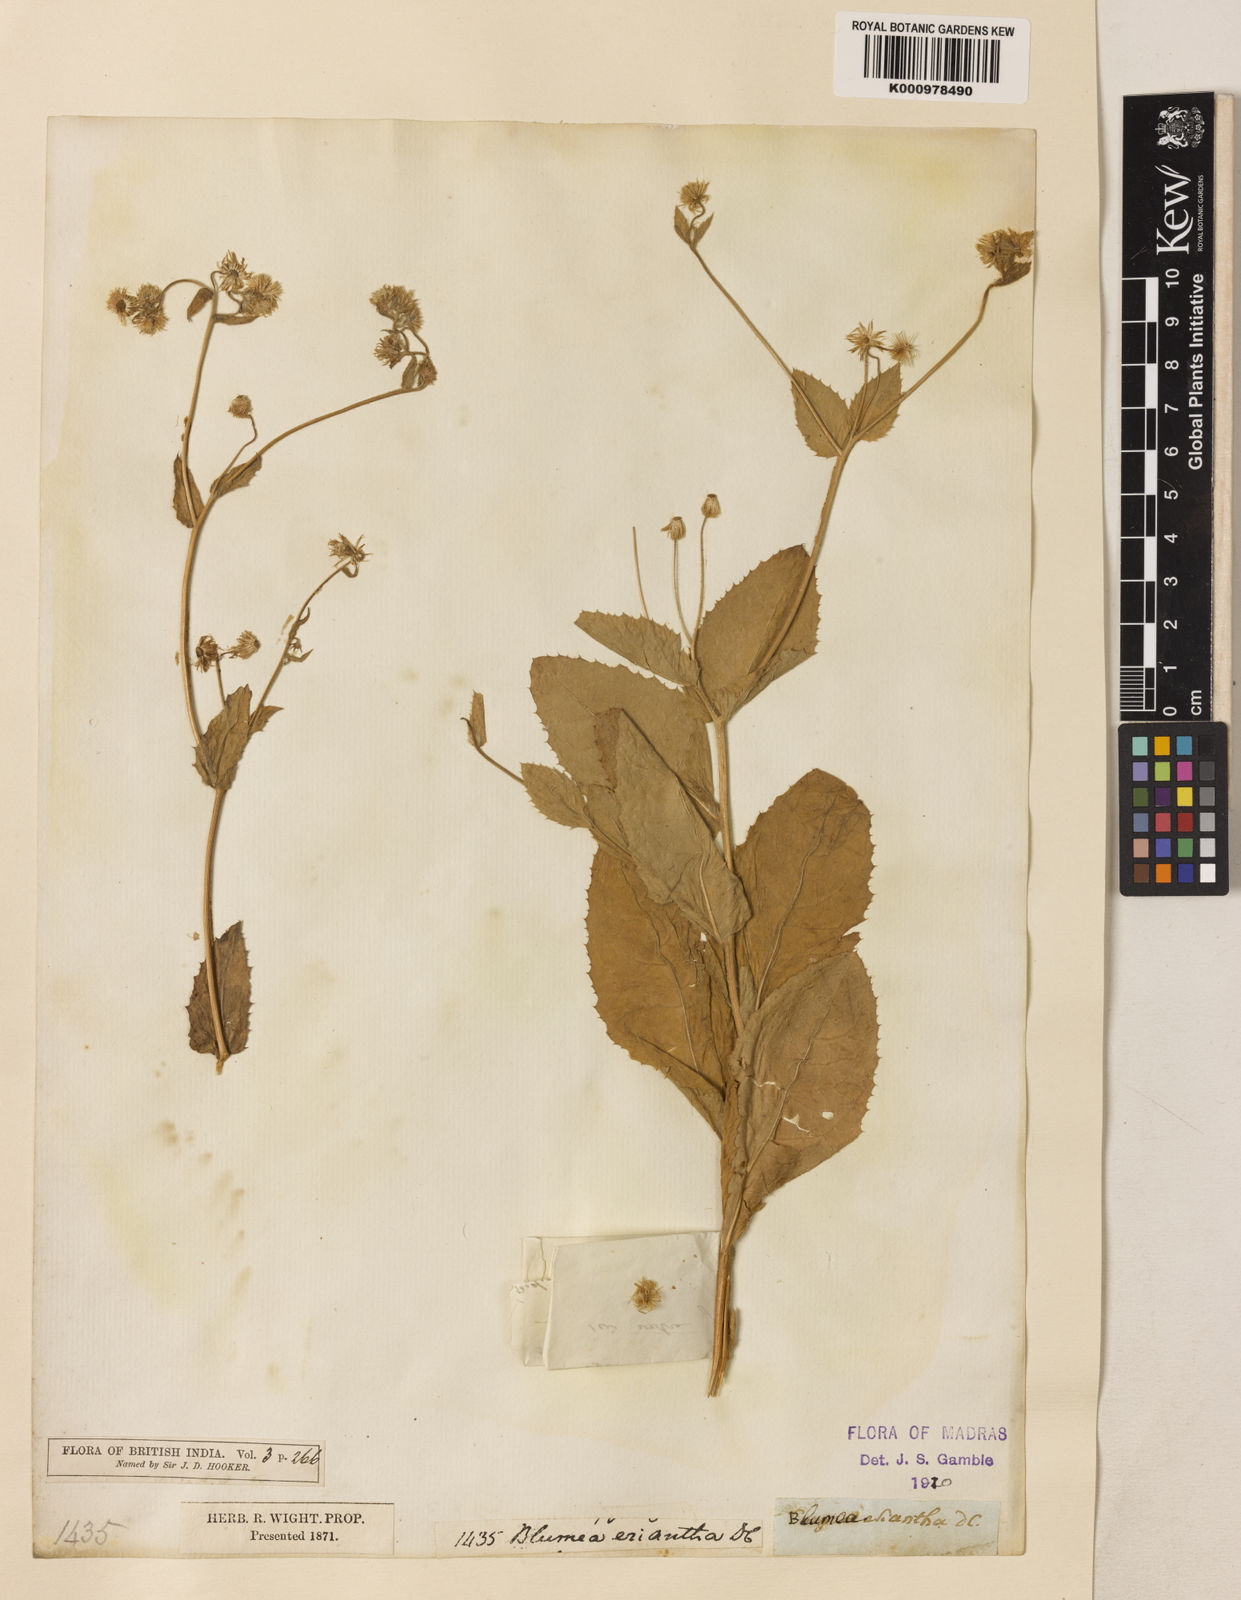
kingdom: Plantae
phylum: Tracheophyta
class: Magnoliopsida
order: Asterales
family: Asteraceae
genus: Blumea
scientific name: Blumea eriantha
